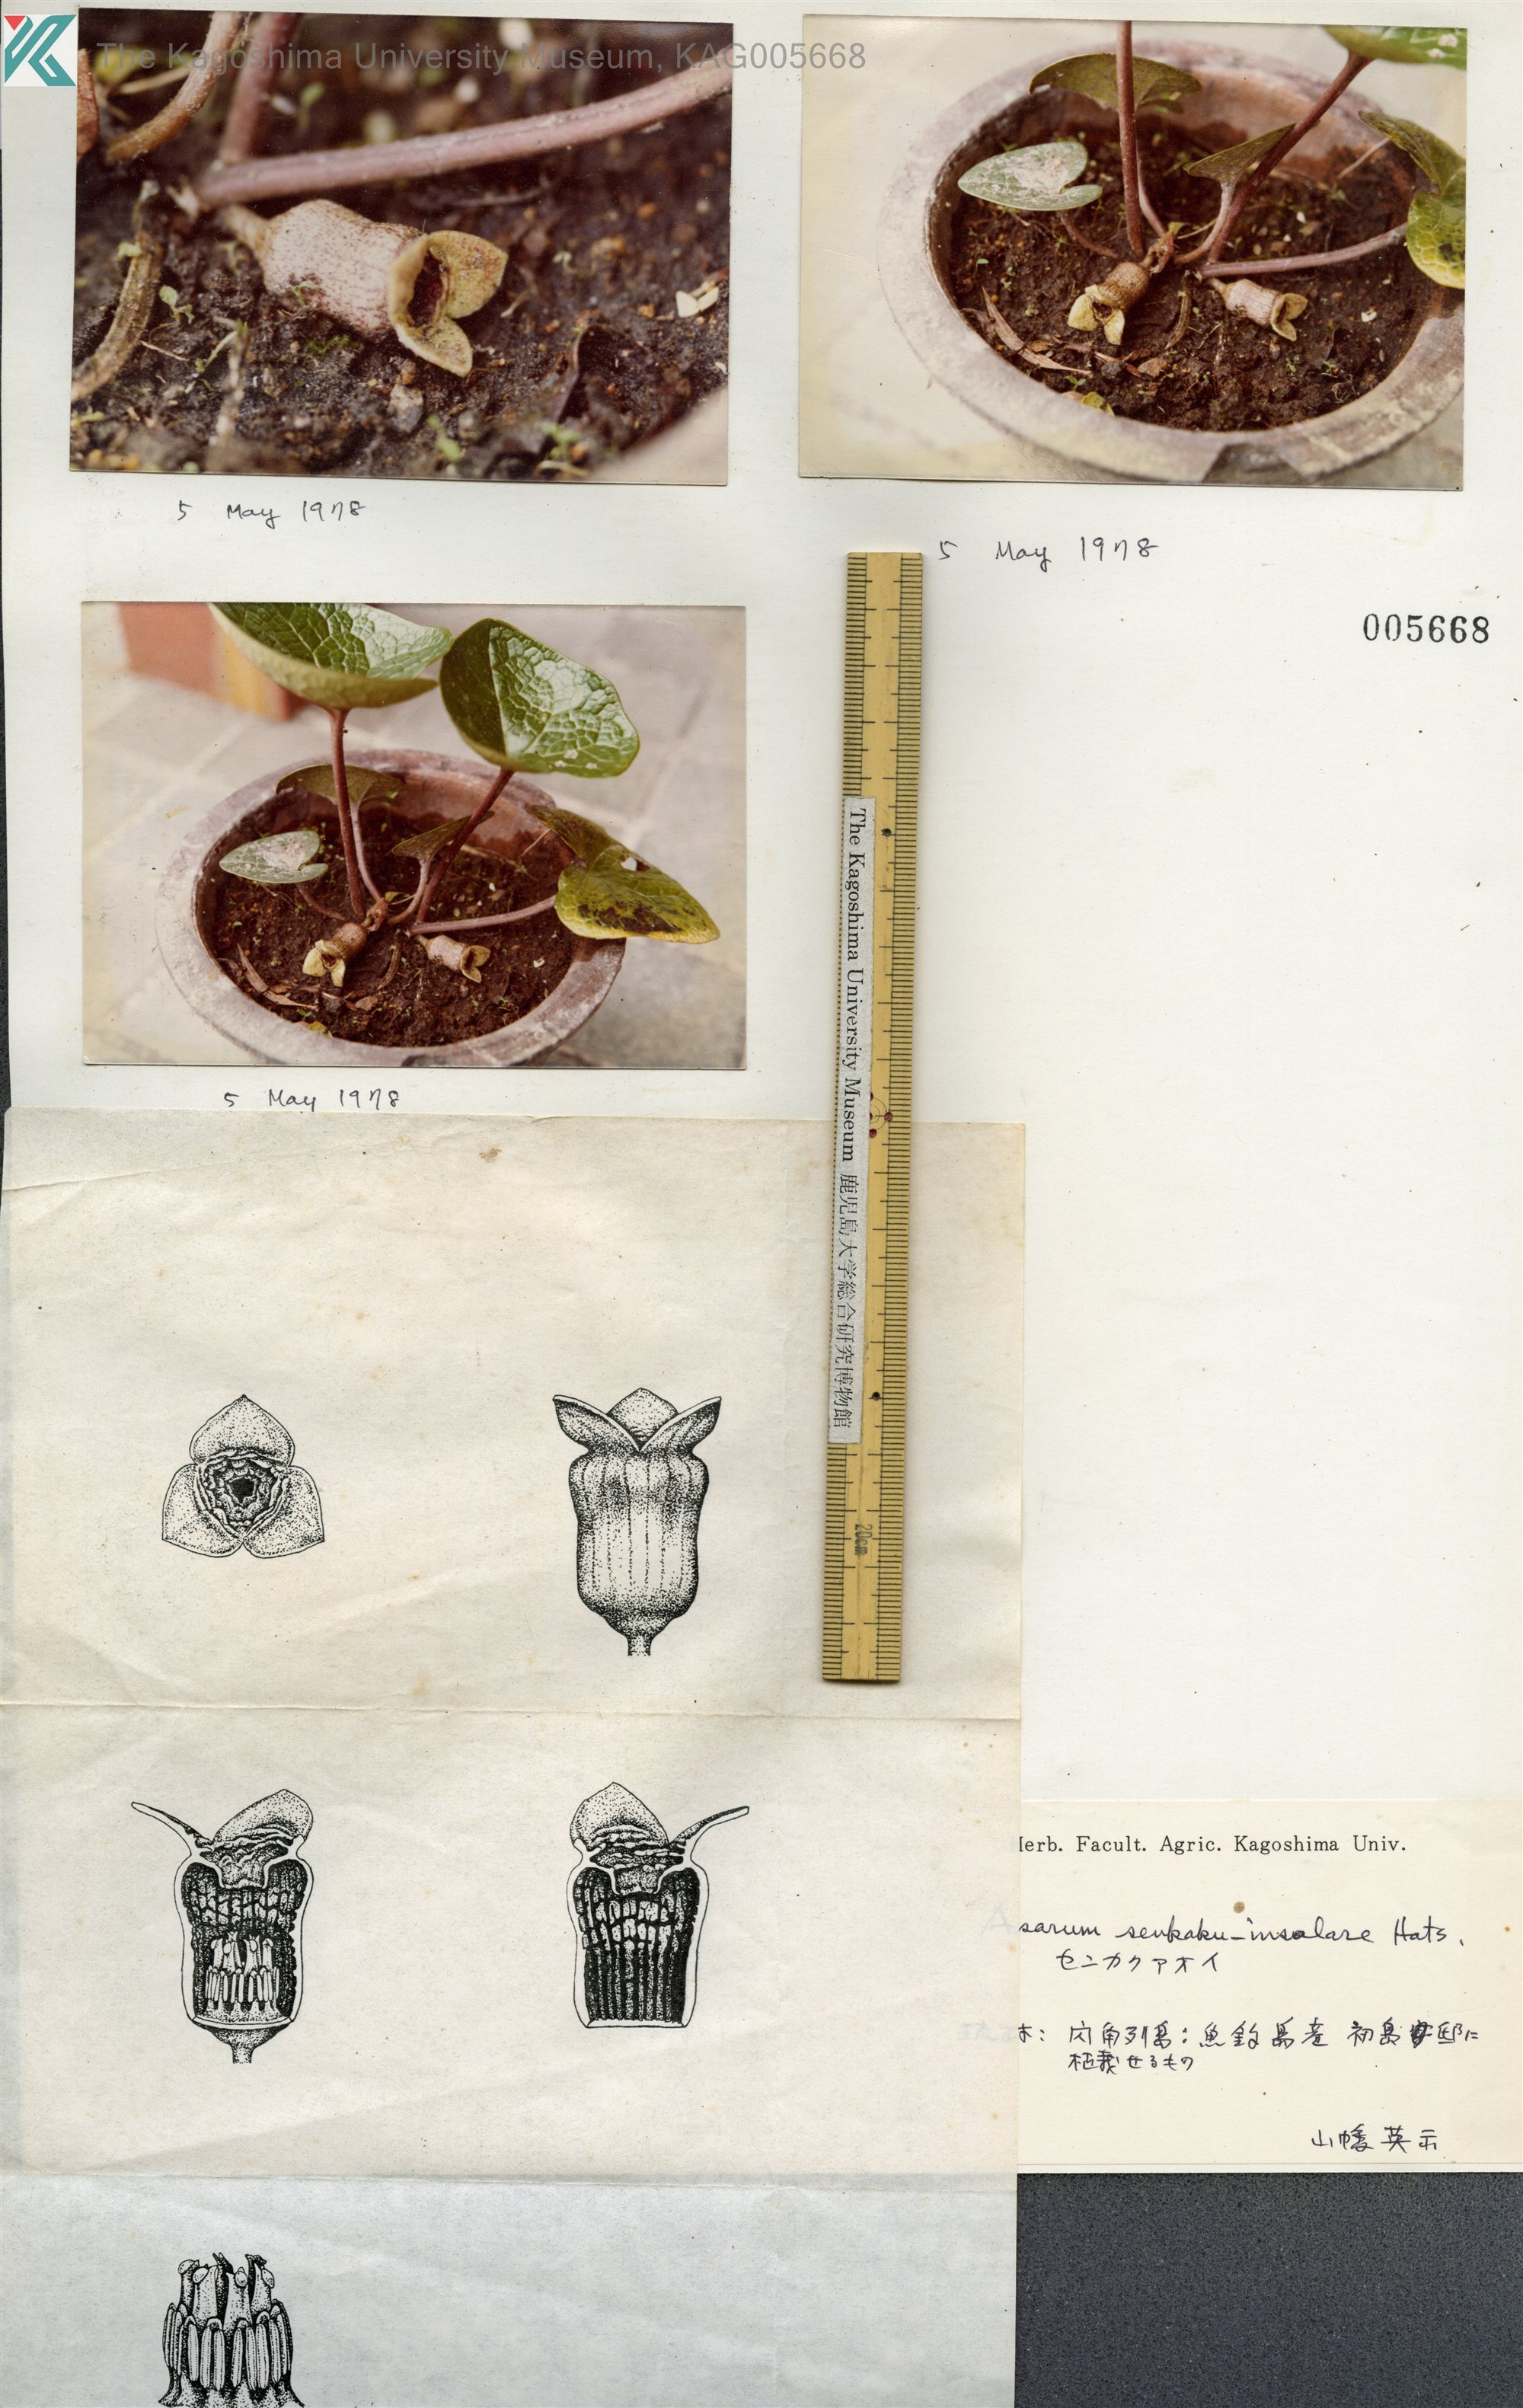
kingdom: Plantae
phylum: Tracheophyta
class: Magnoliopsida
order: Piperales
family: Aristolochiaceae
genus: Asarum
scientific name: Asarum senkakuinsulare
